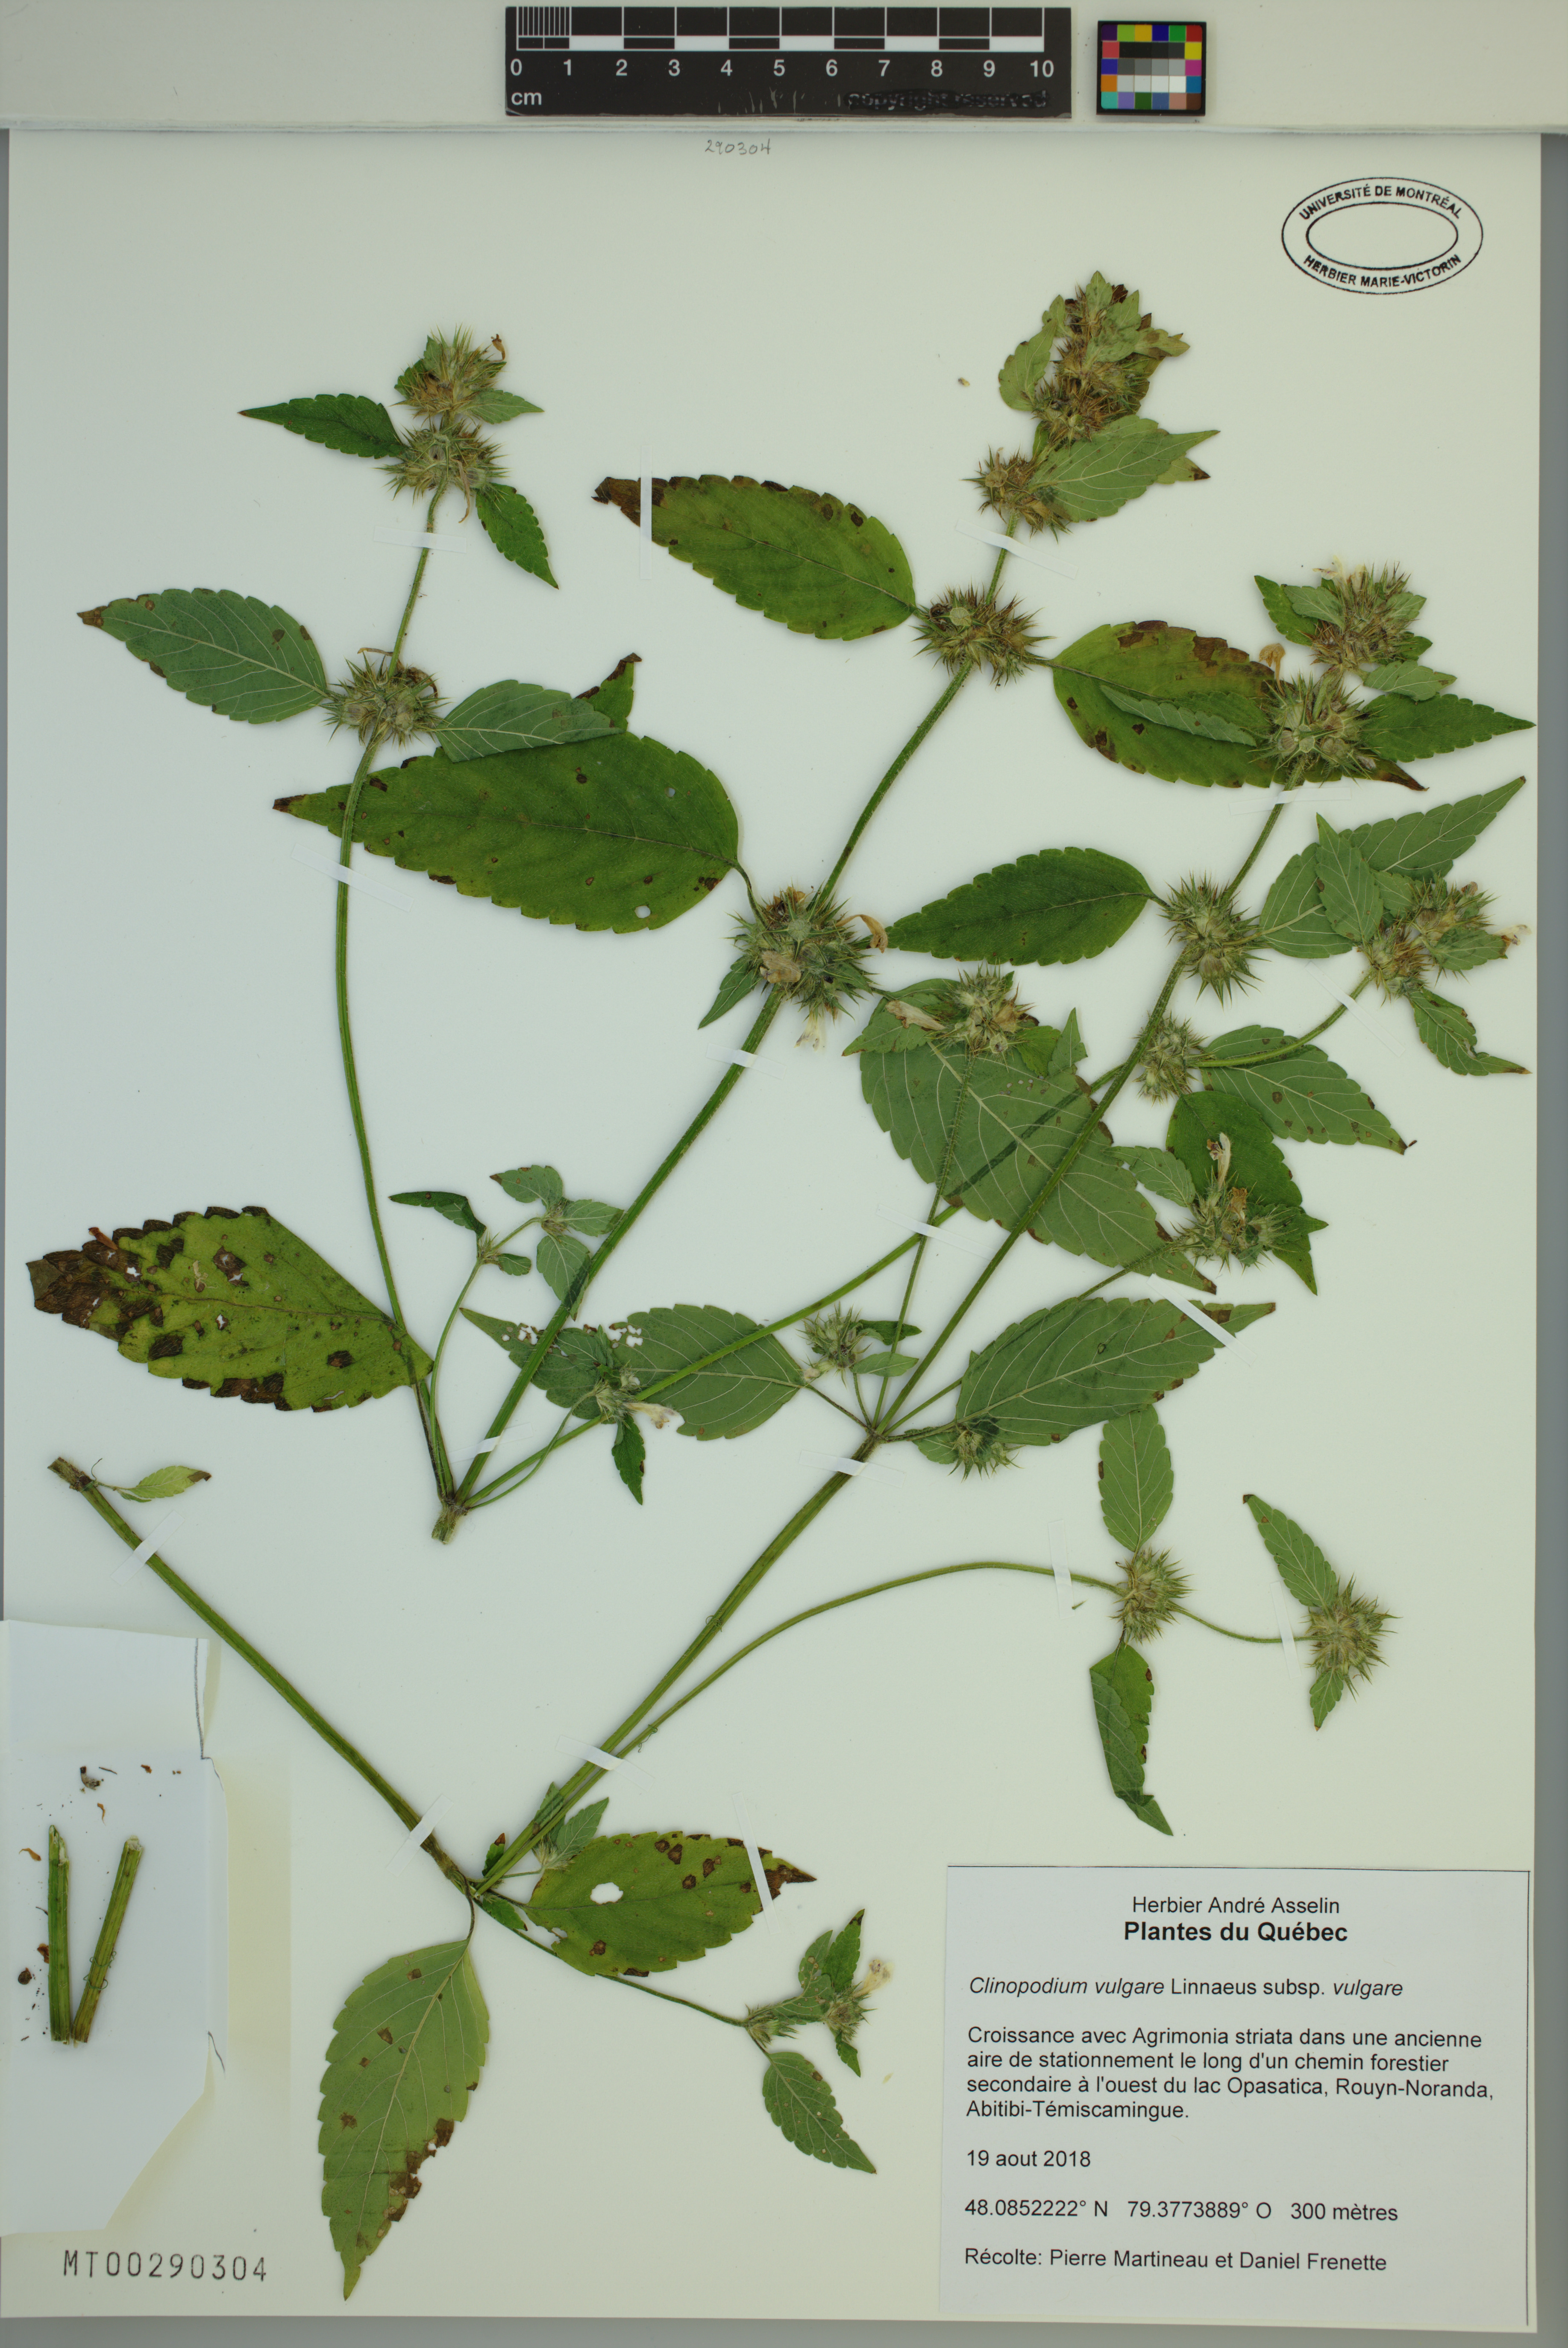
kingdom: Plantae
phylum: Tracheophyta
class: Magnoliopsida
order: Lamiales
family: Lamiaceae
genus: Clinopodium
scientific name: Clinopodium vulgare
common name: Wild basil
